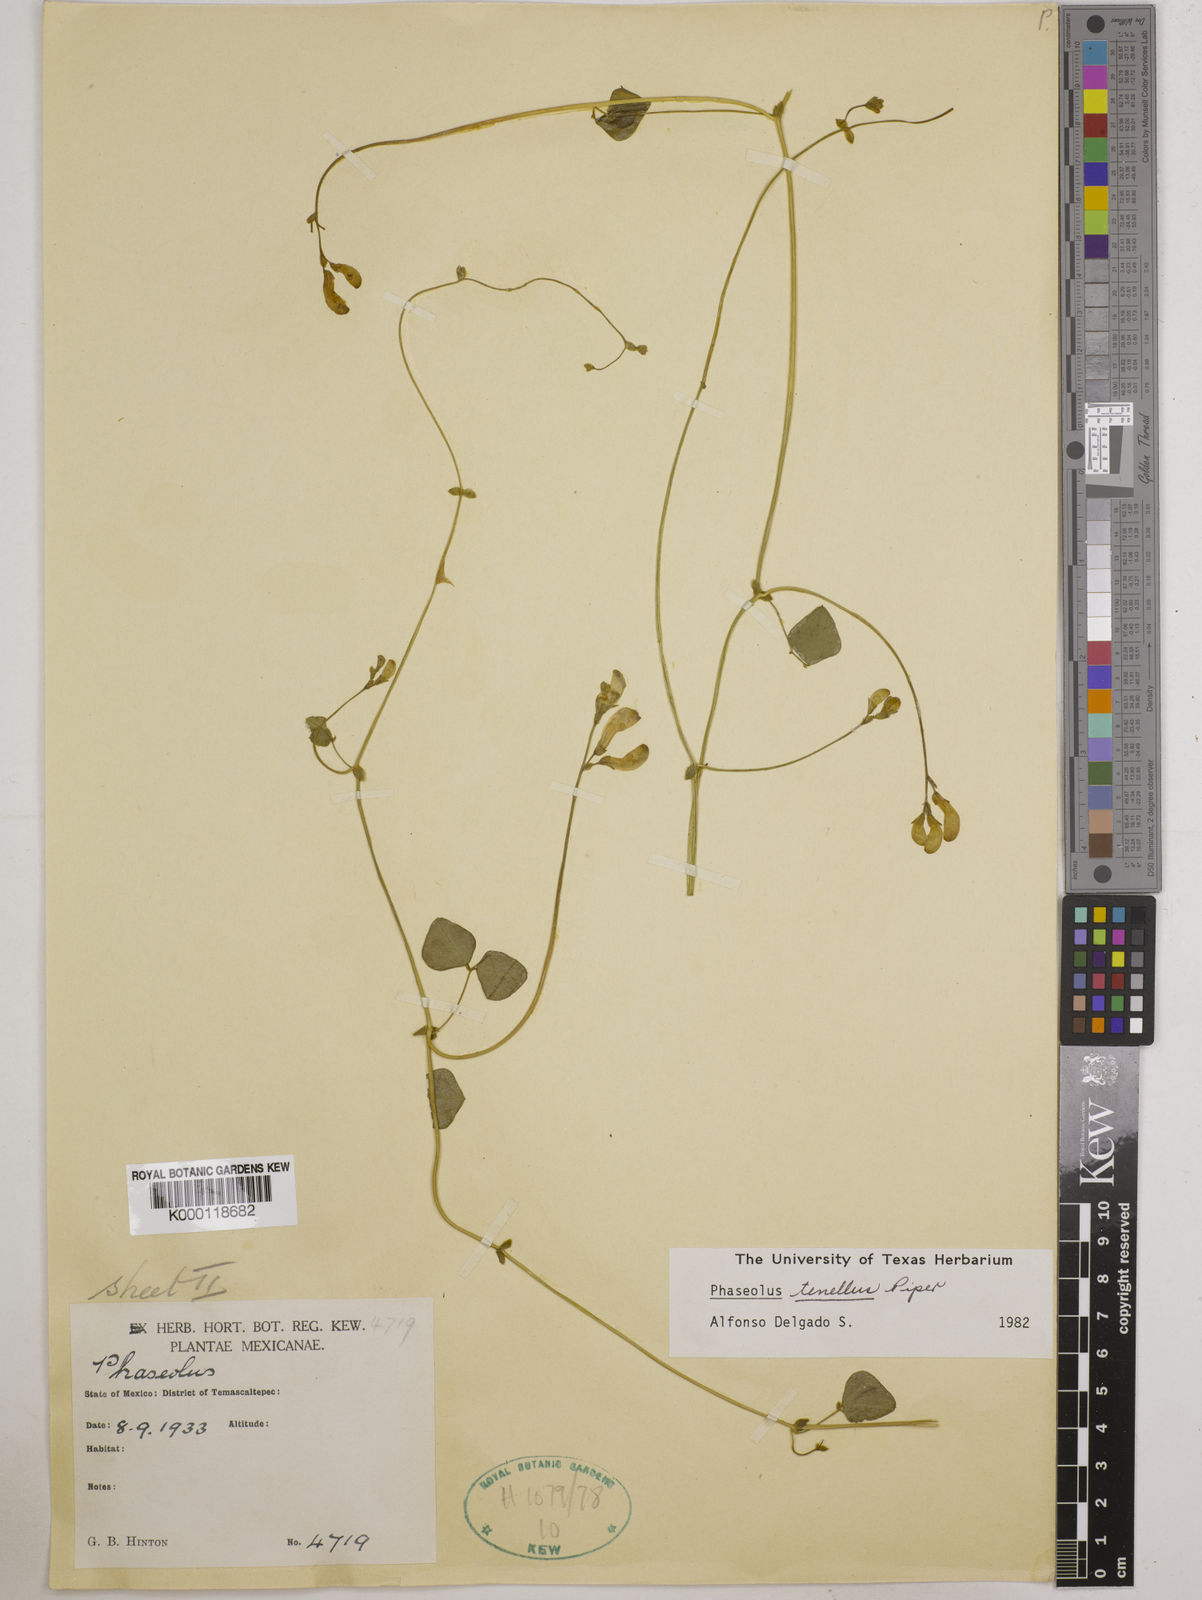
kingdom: Plantae
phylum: Tracheophyta
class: Magnoliopsida
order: Fabales
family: Fabaceae
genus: Phaseolus
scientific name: Phaseolus tenellus
